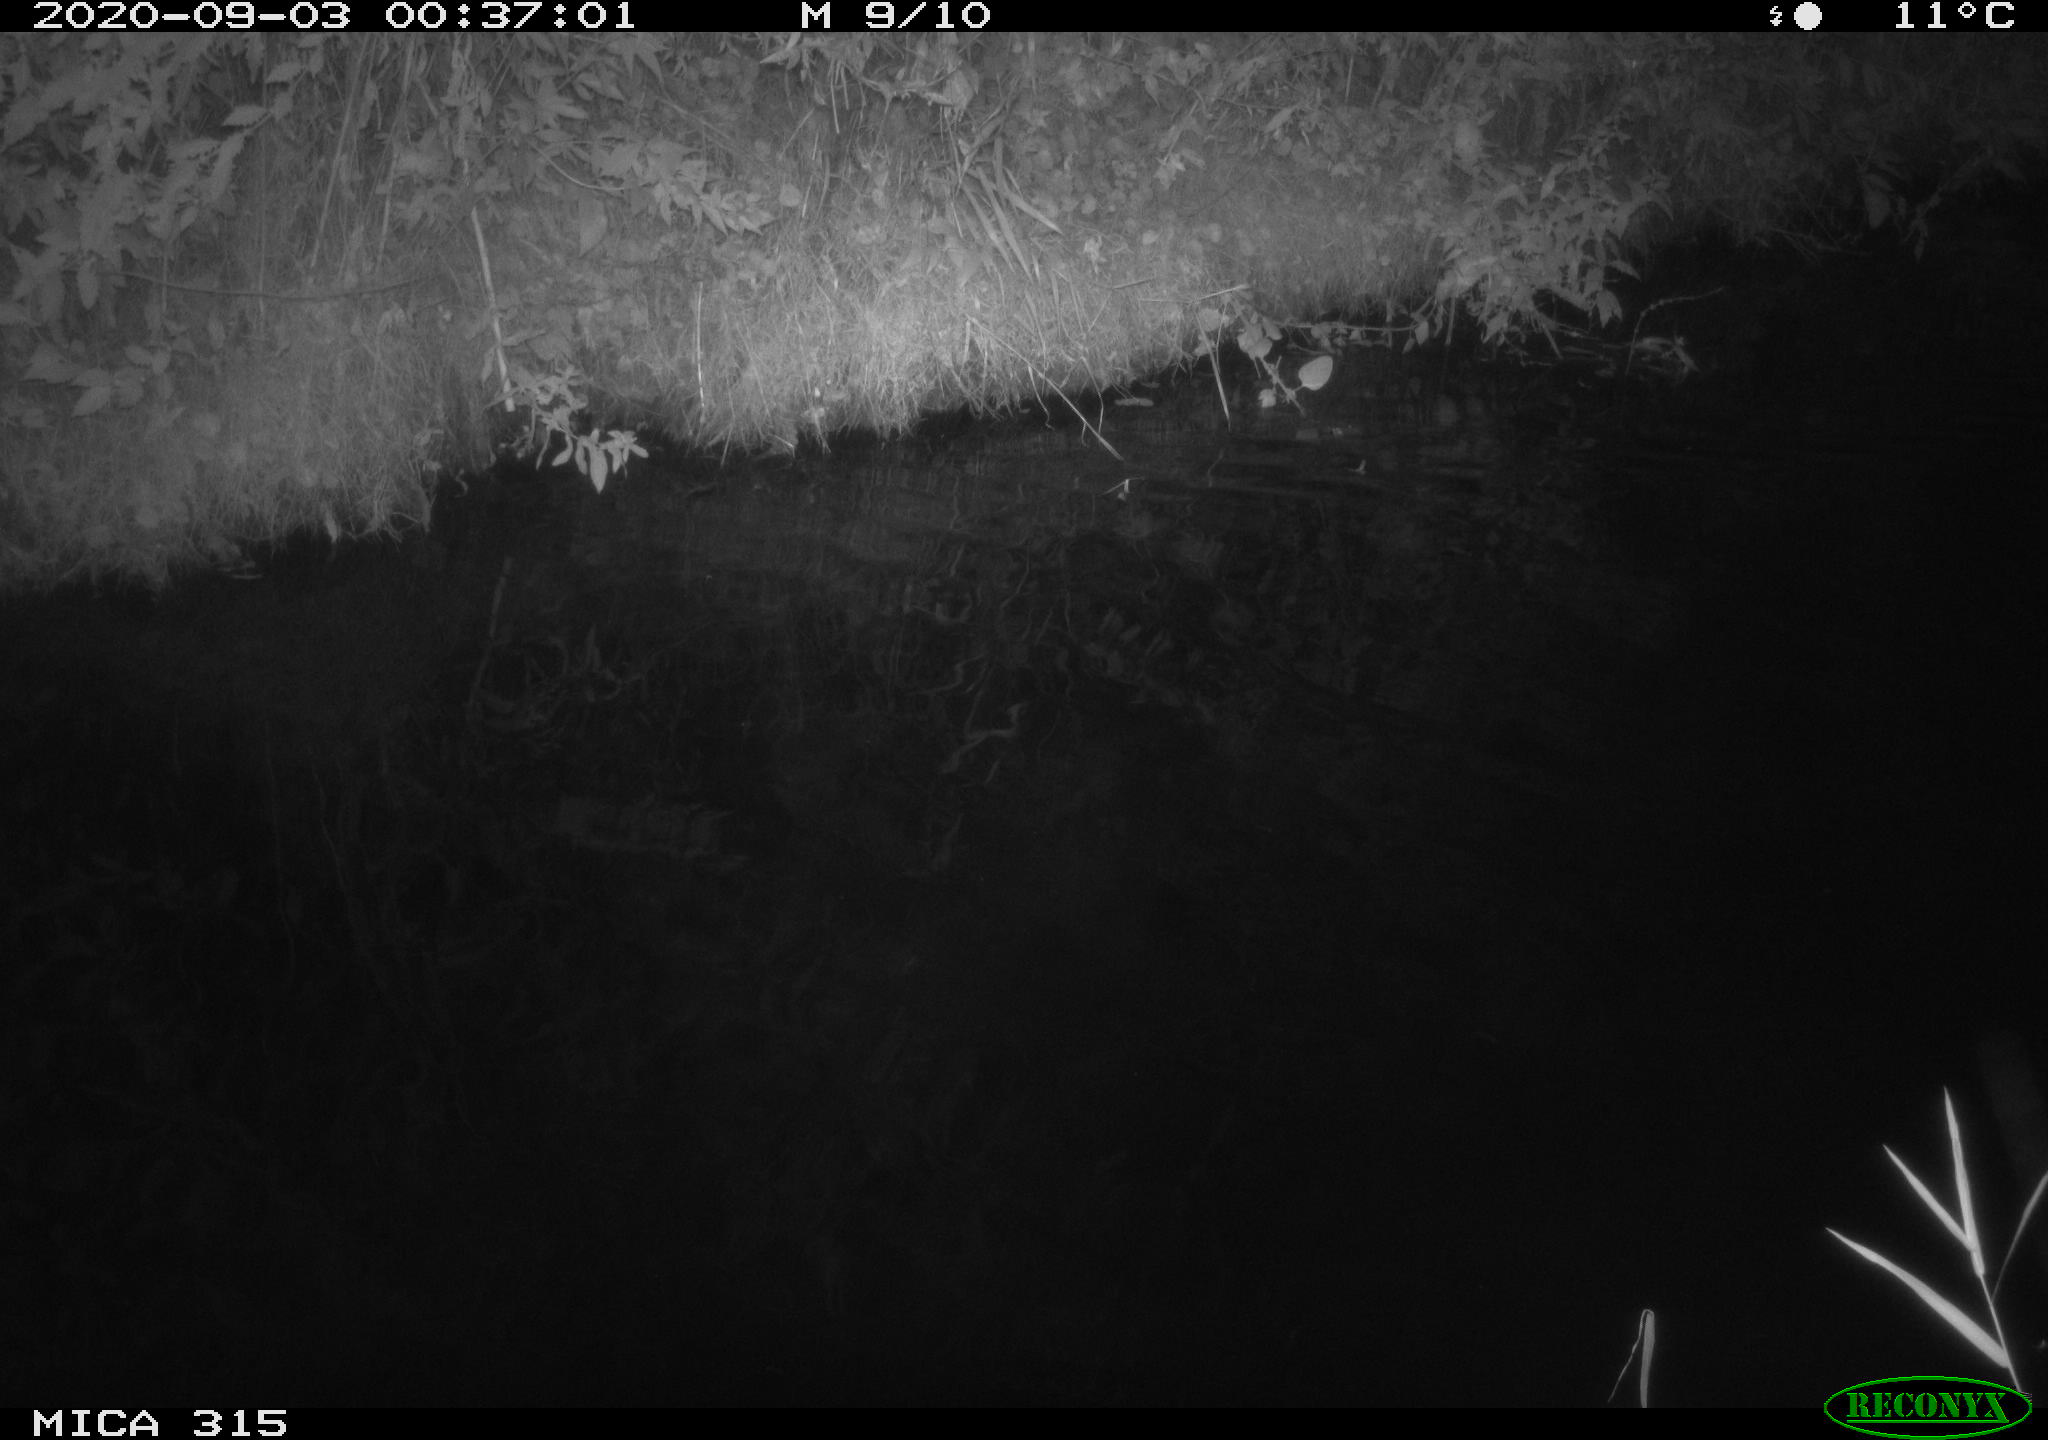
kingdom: Animalia
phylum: Chordata
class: Aves
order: Anseriformes
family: Anatidae
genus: Anas
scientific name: Anas platyrhynchos
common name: Mallard
